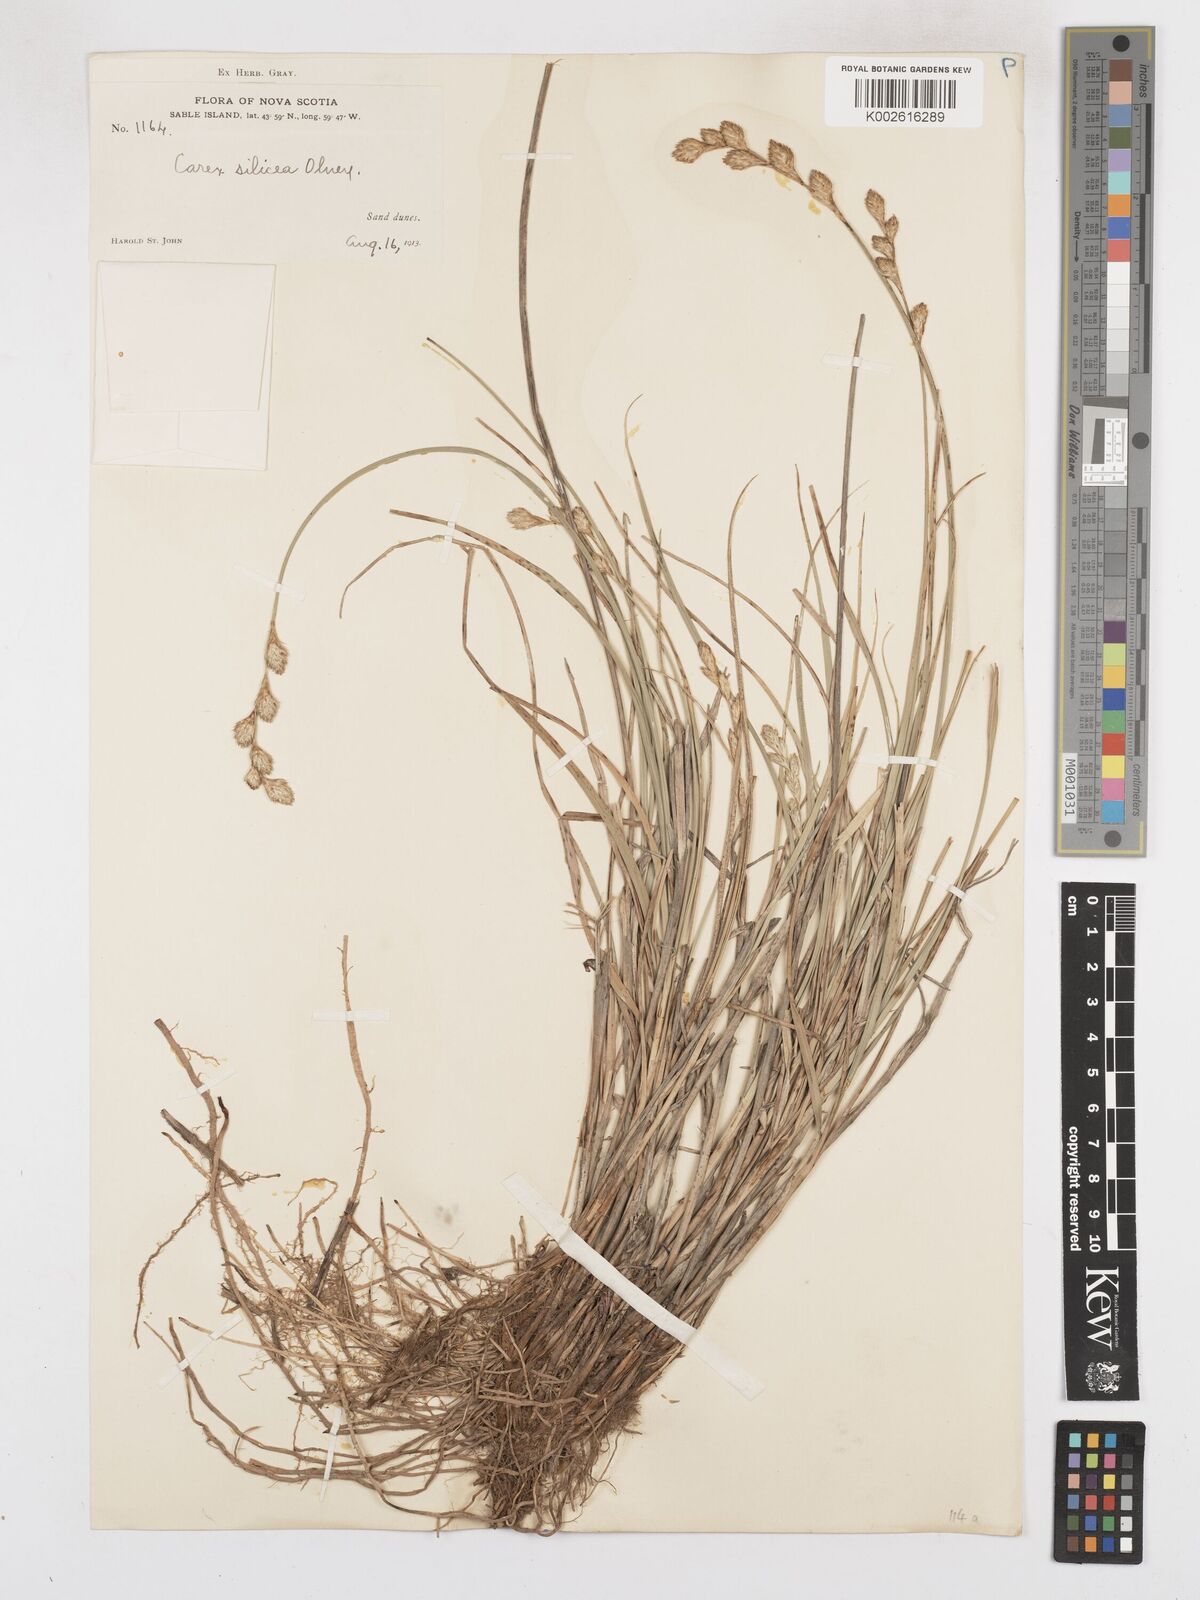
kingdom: Plantae
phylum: Tracheophyta
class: Liliopsida
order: Poales
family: Cyperaceae
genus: Carex
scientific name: Carex silicea
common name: Beach sedge
